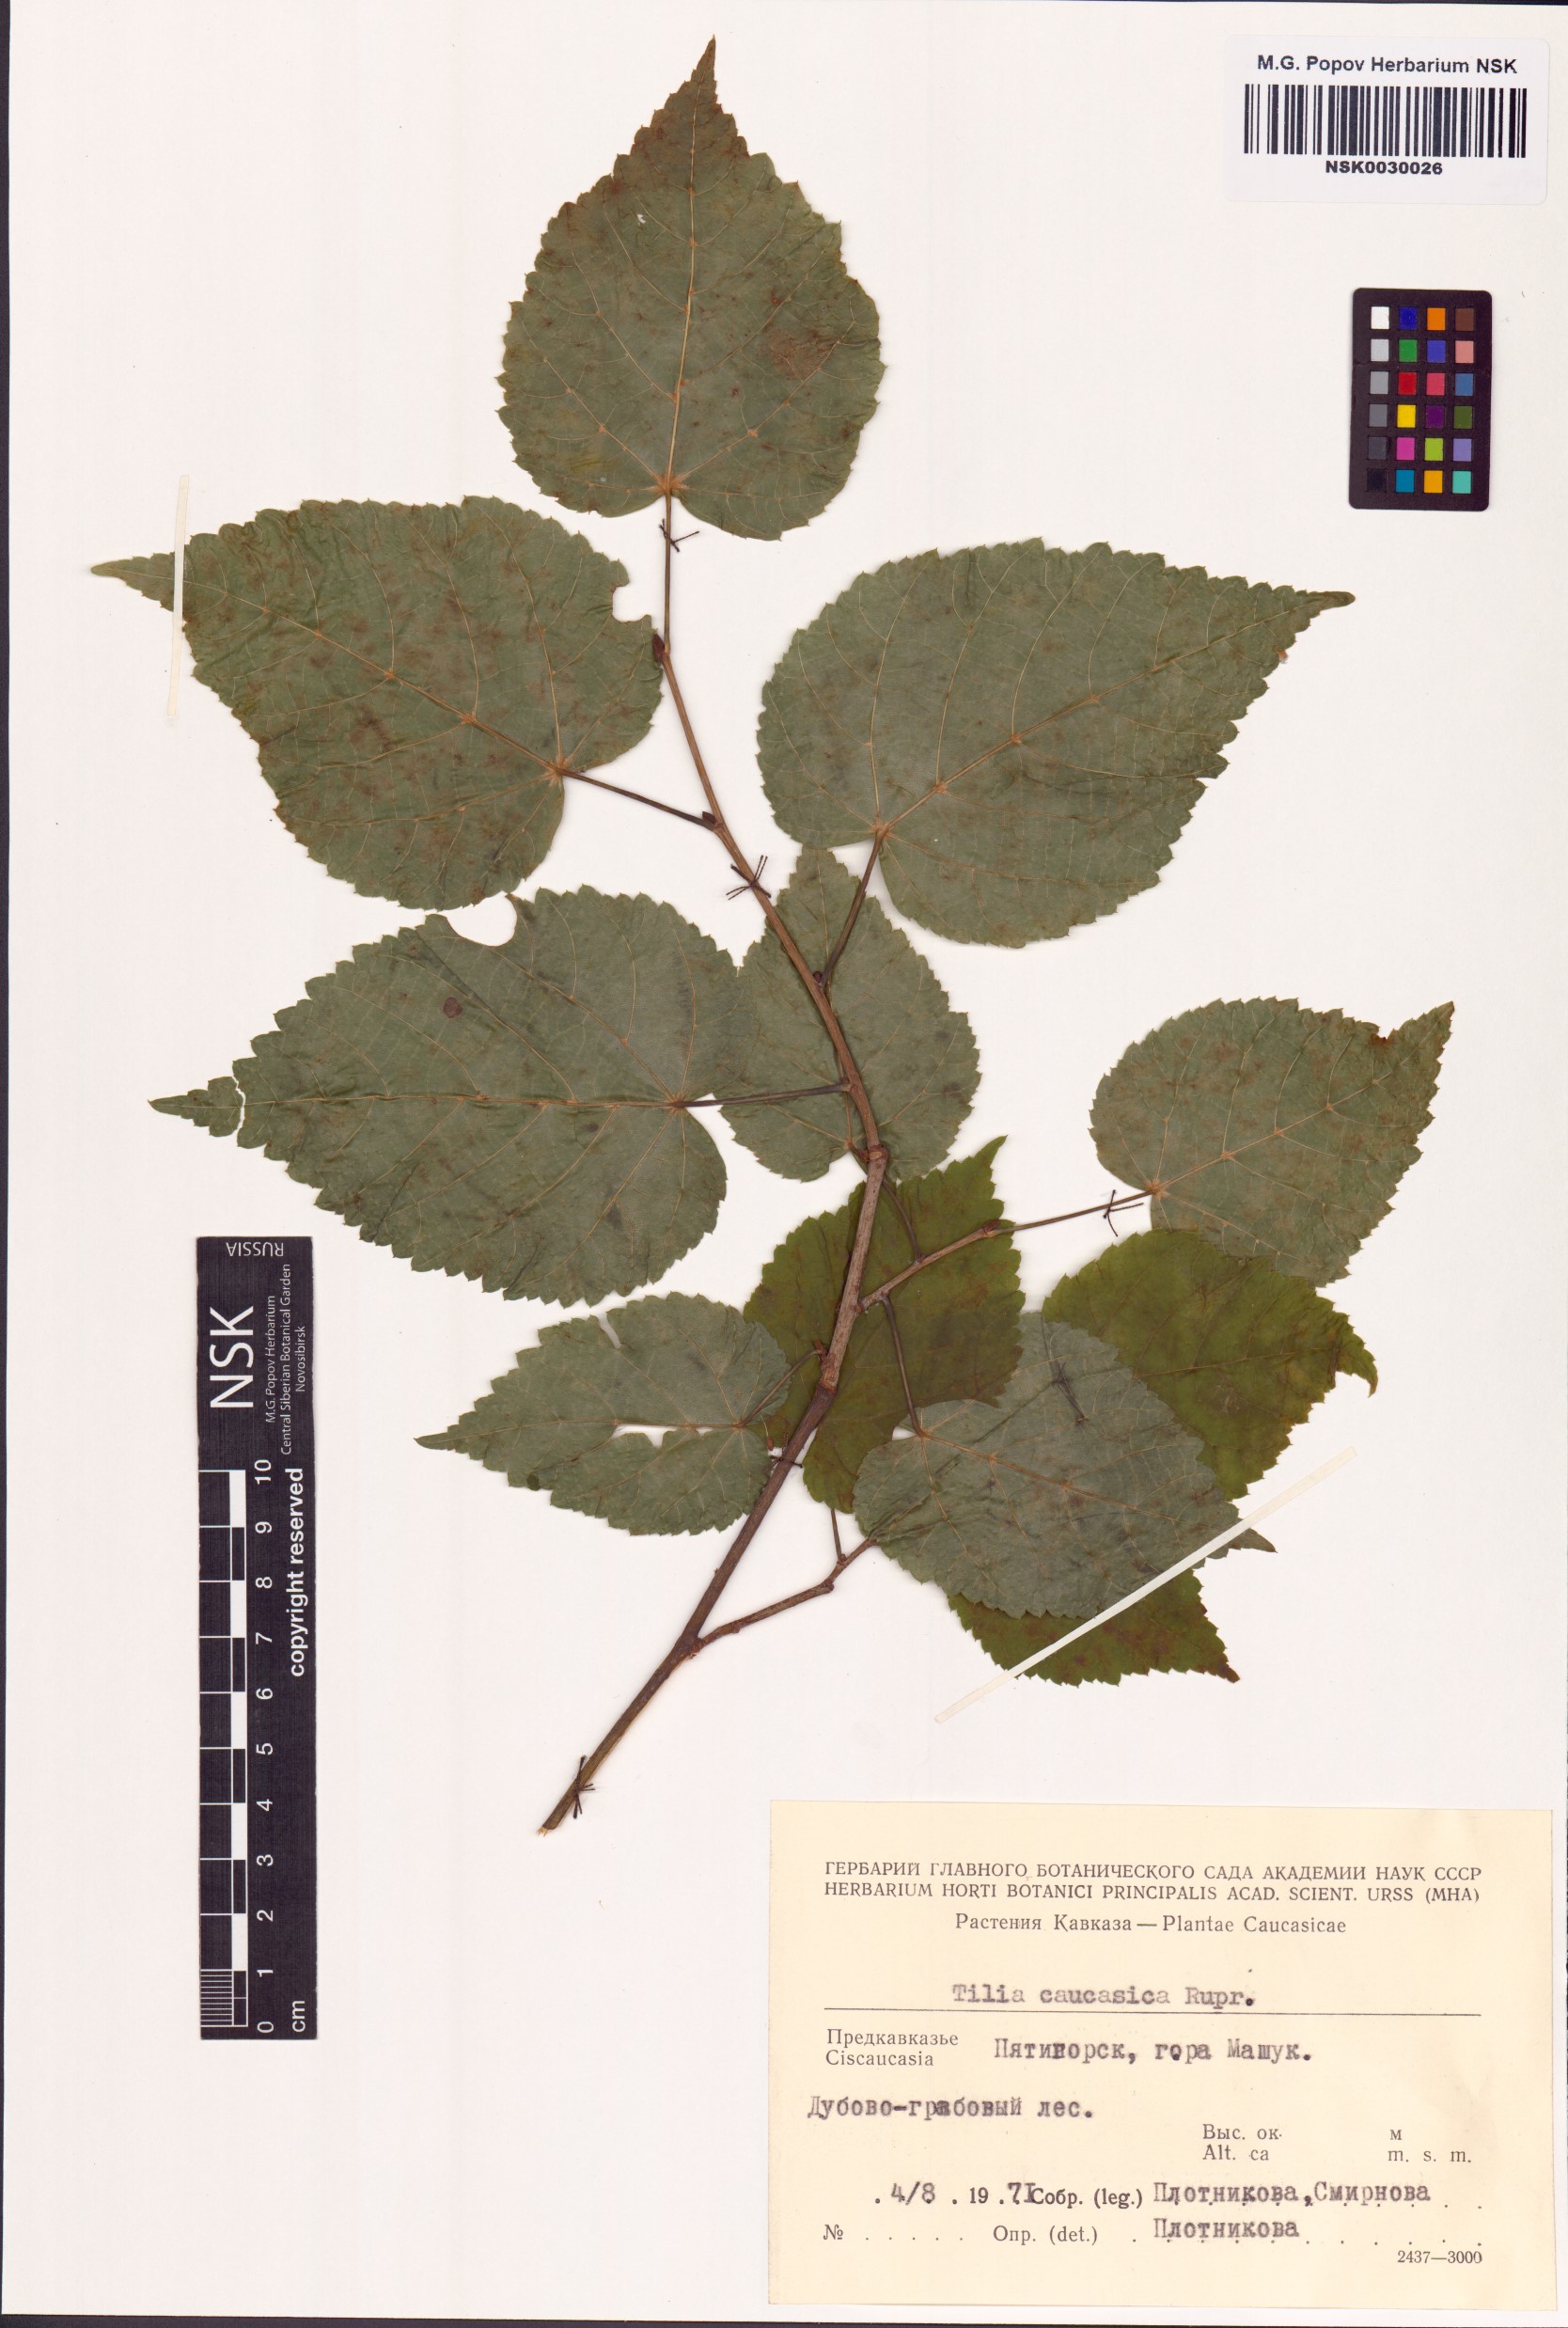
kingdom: Plantae
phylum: Tracheophyta
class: Magnoliopsida
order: Malvales
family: Malvaceae
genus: Tilia
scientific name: Tilia dasystyla
